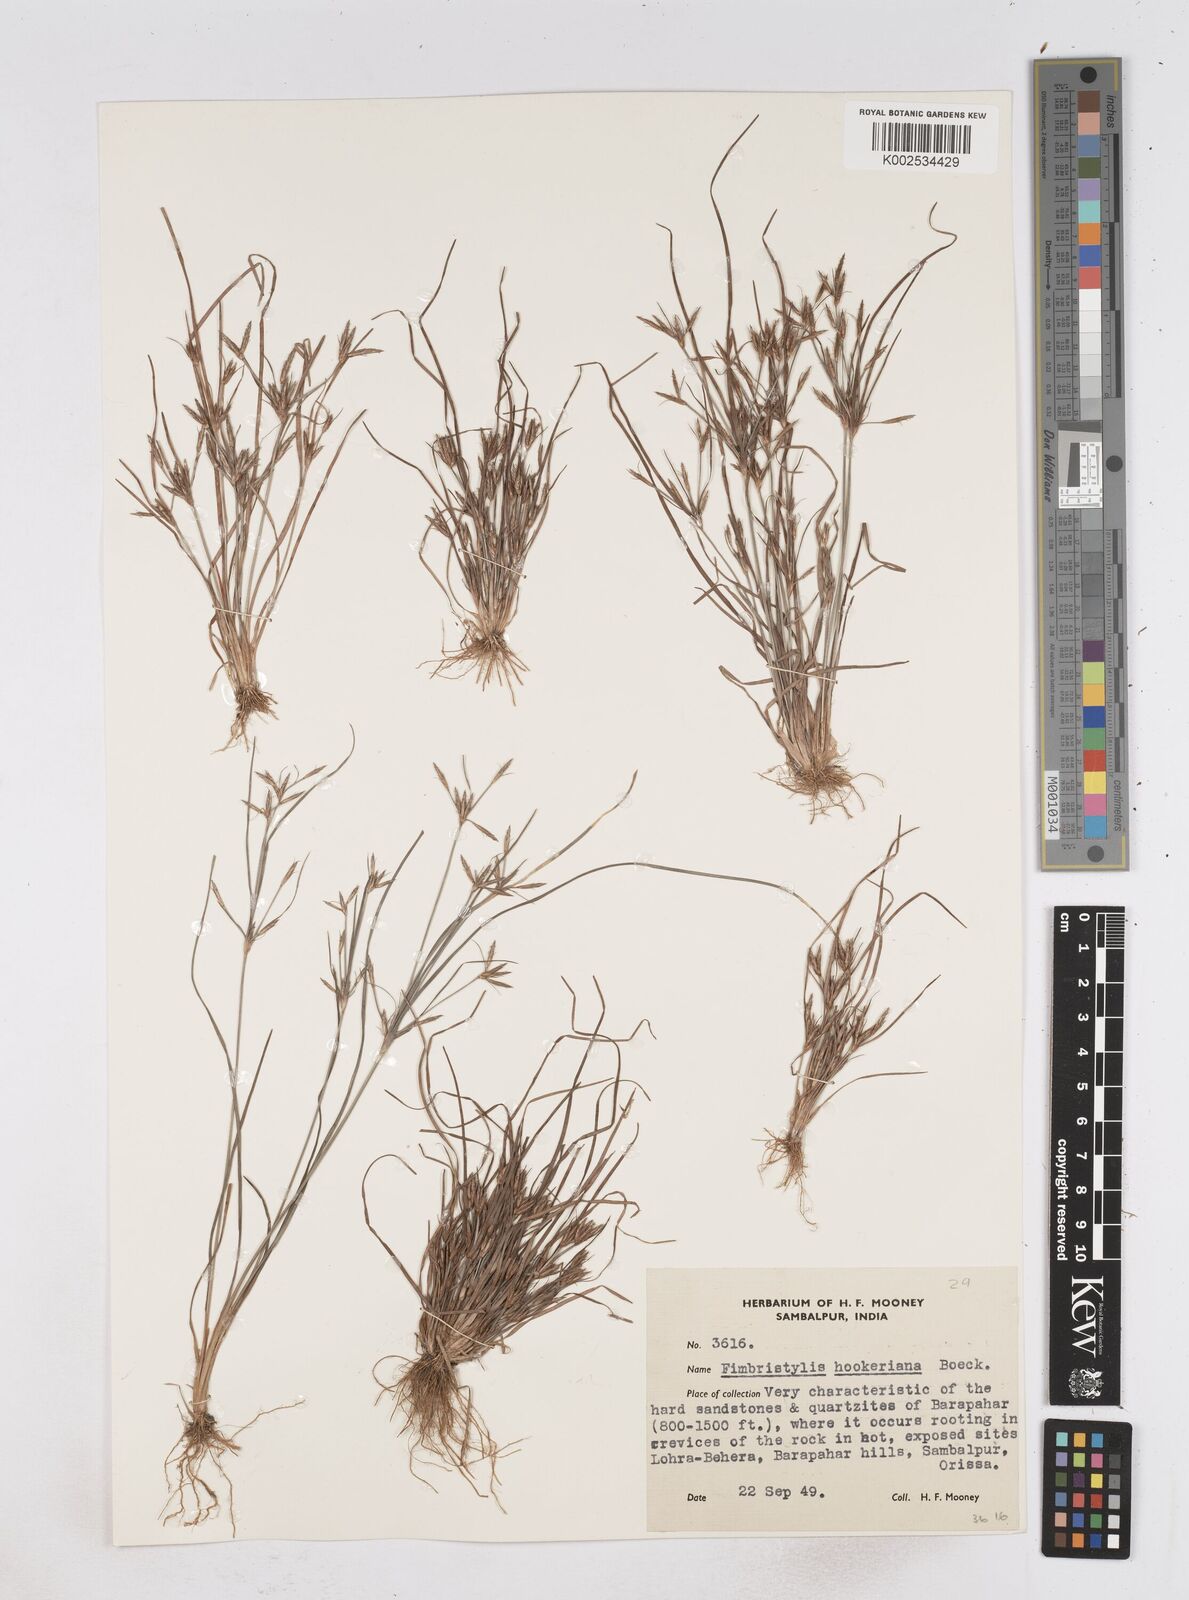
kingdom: Plantae
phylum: Tracheophyta
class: Liliopsida
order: Poales
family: Cyperaceae
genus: Fimbristylis
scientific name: Fimbristylis hookeriana
